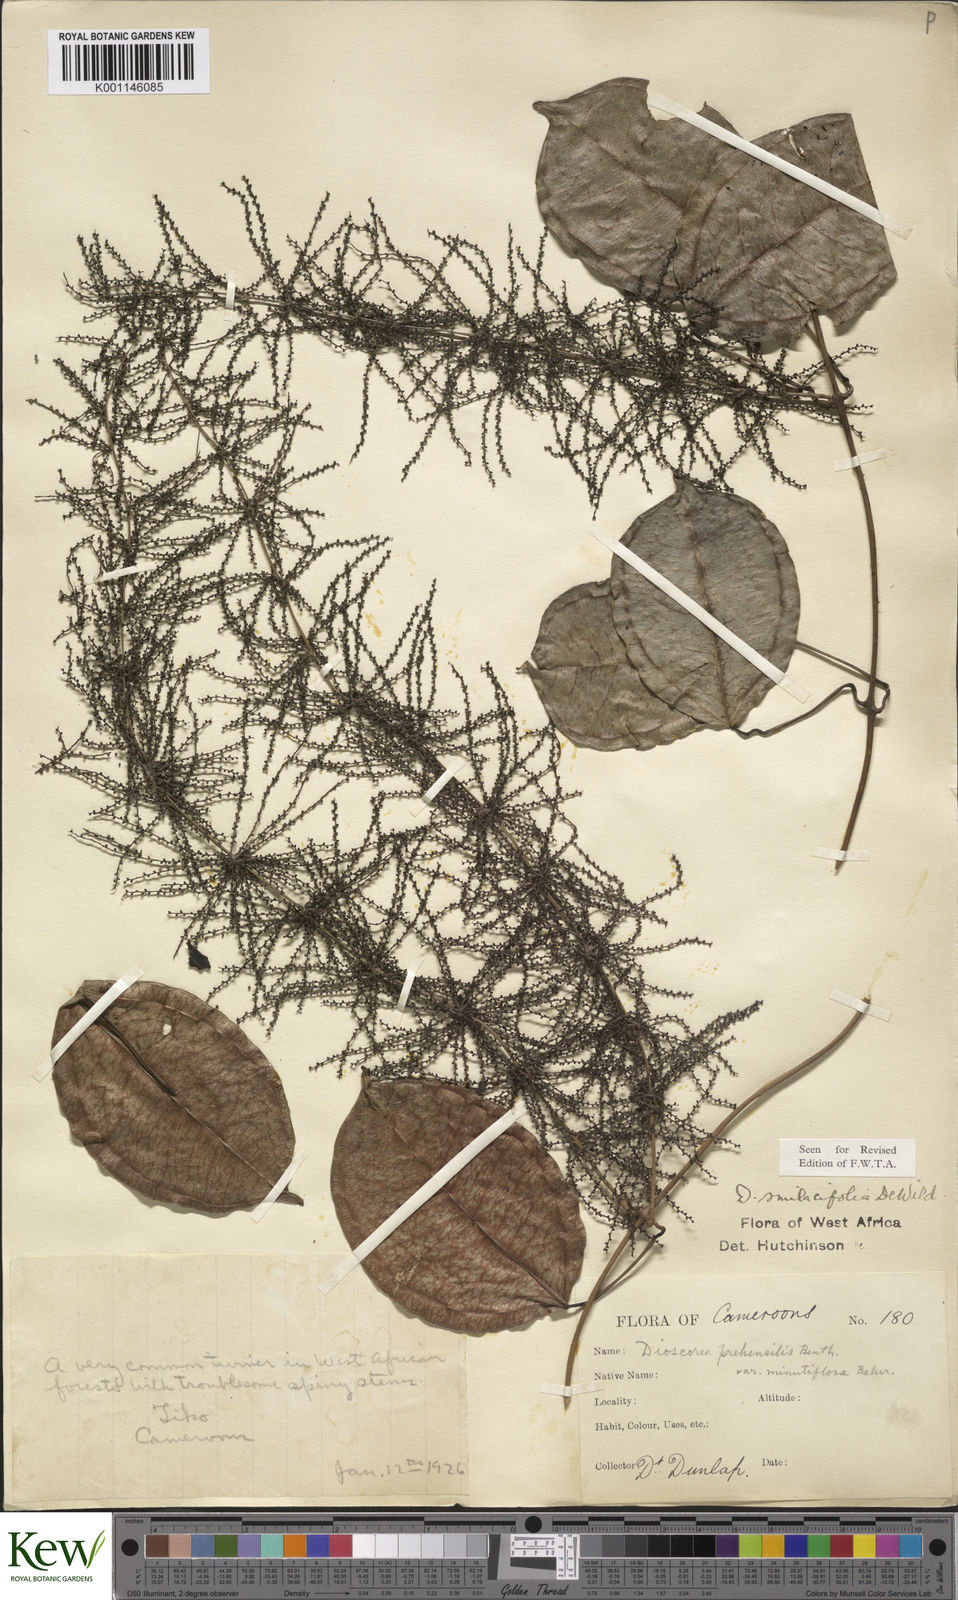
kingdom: Plantae
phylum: Tracheophyta
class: Liliopsida
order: Dioscoreales
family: Dioscoreaceae
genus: Dioscorea
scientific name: Dioscorea smilacifolia
